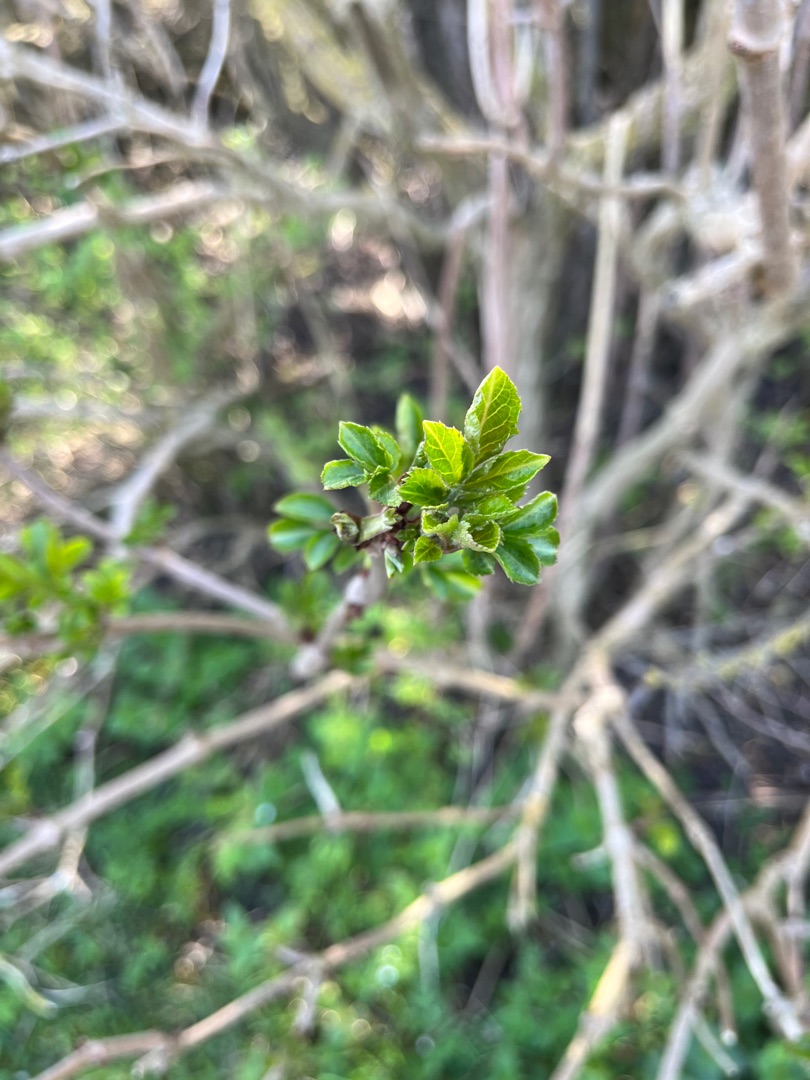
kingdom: Plantae
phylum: Tracheophyta
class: Magnoliopsida
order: Dipsacales
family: Viburnaceae
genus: Sambucus
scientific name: Sambucus nigra
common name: Almindelig hyld
